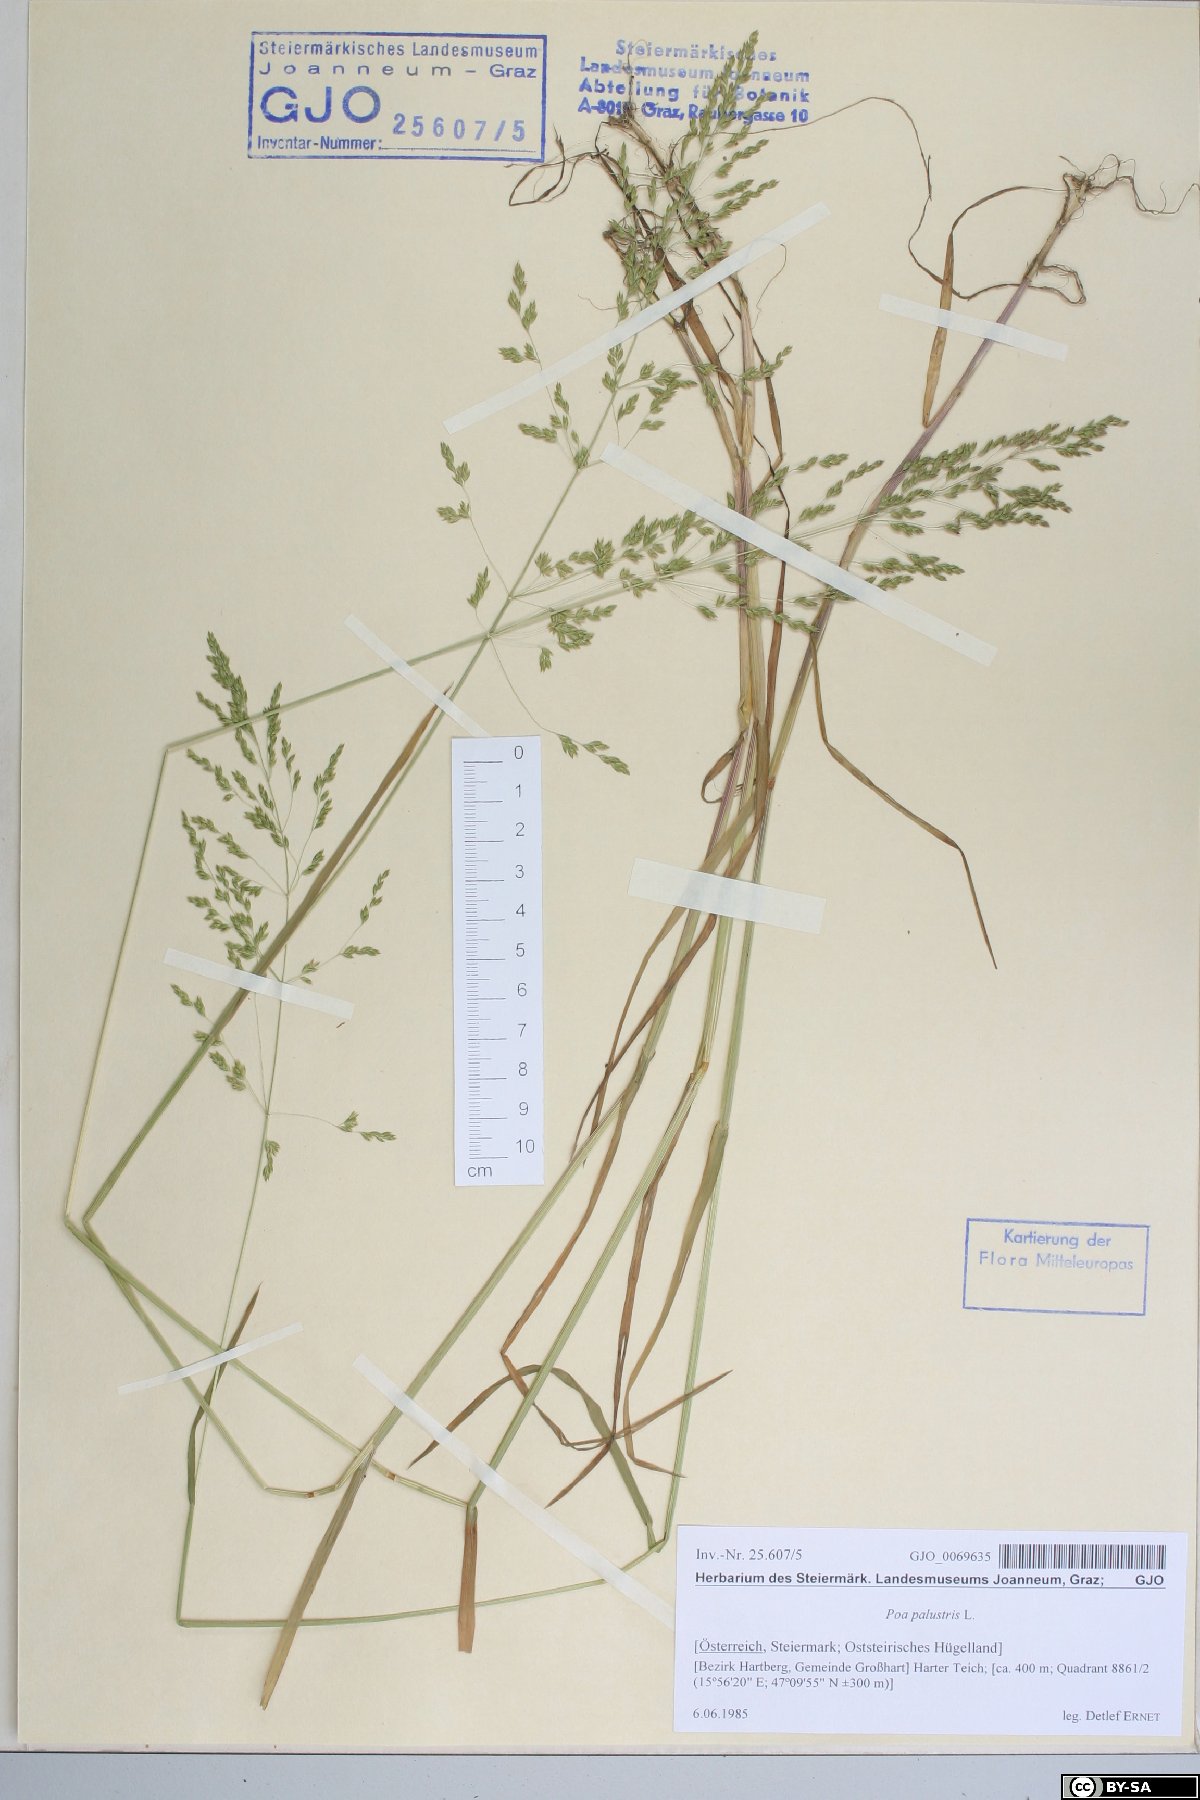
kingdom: Plantae
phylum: Tracheophyta
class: Liliopsida
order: Poales
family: Poaceae
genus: Poa
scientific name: Poa palustris
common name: Swamp meadow-grass
